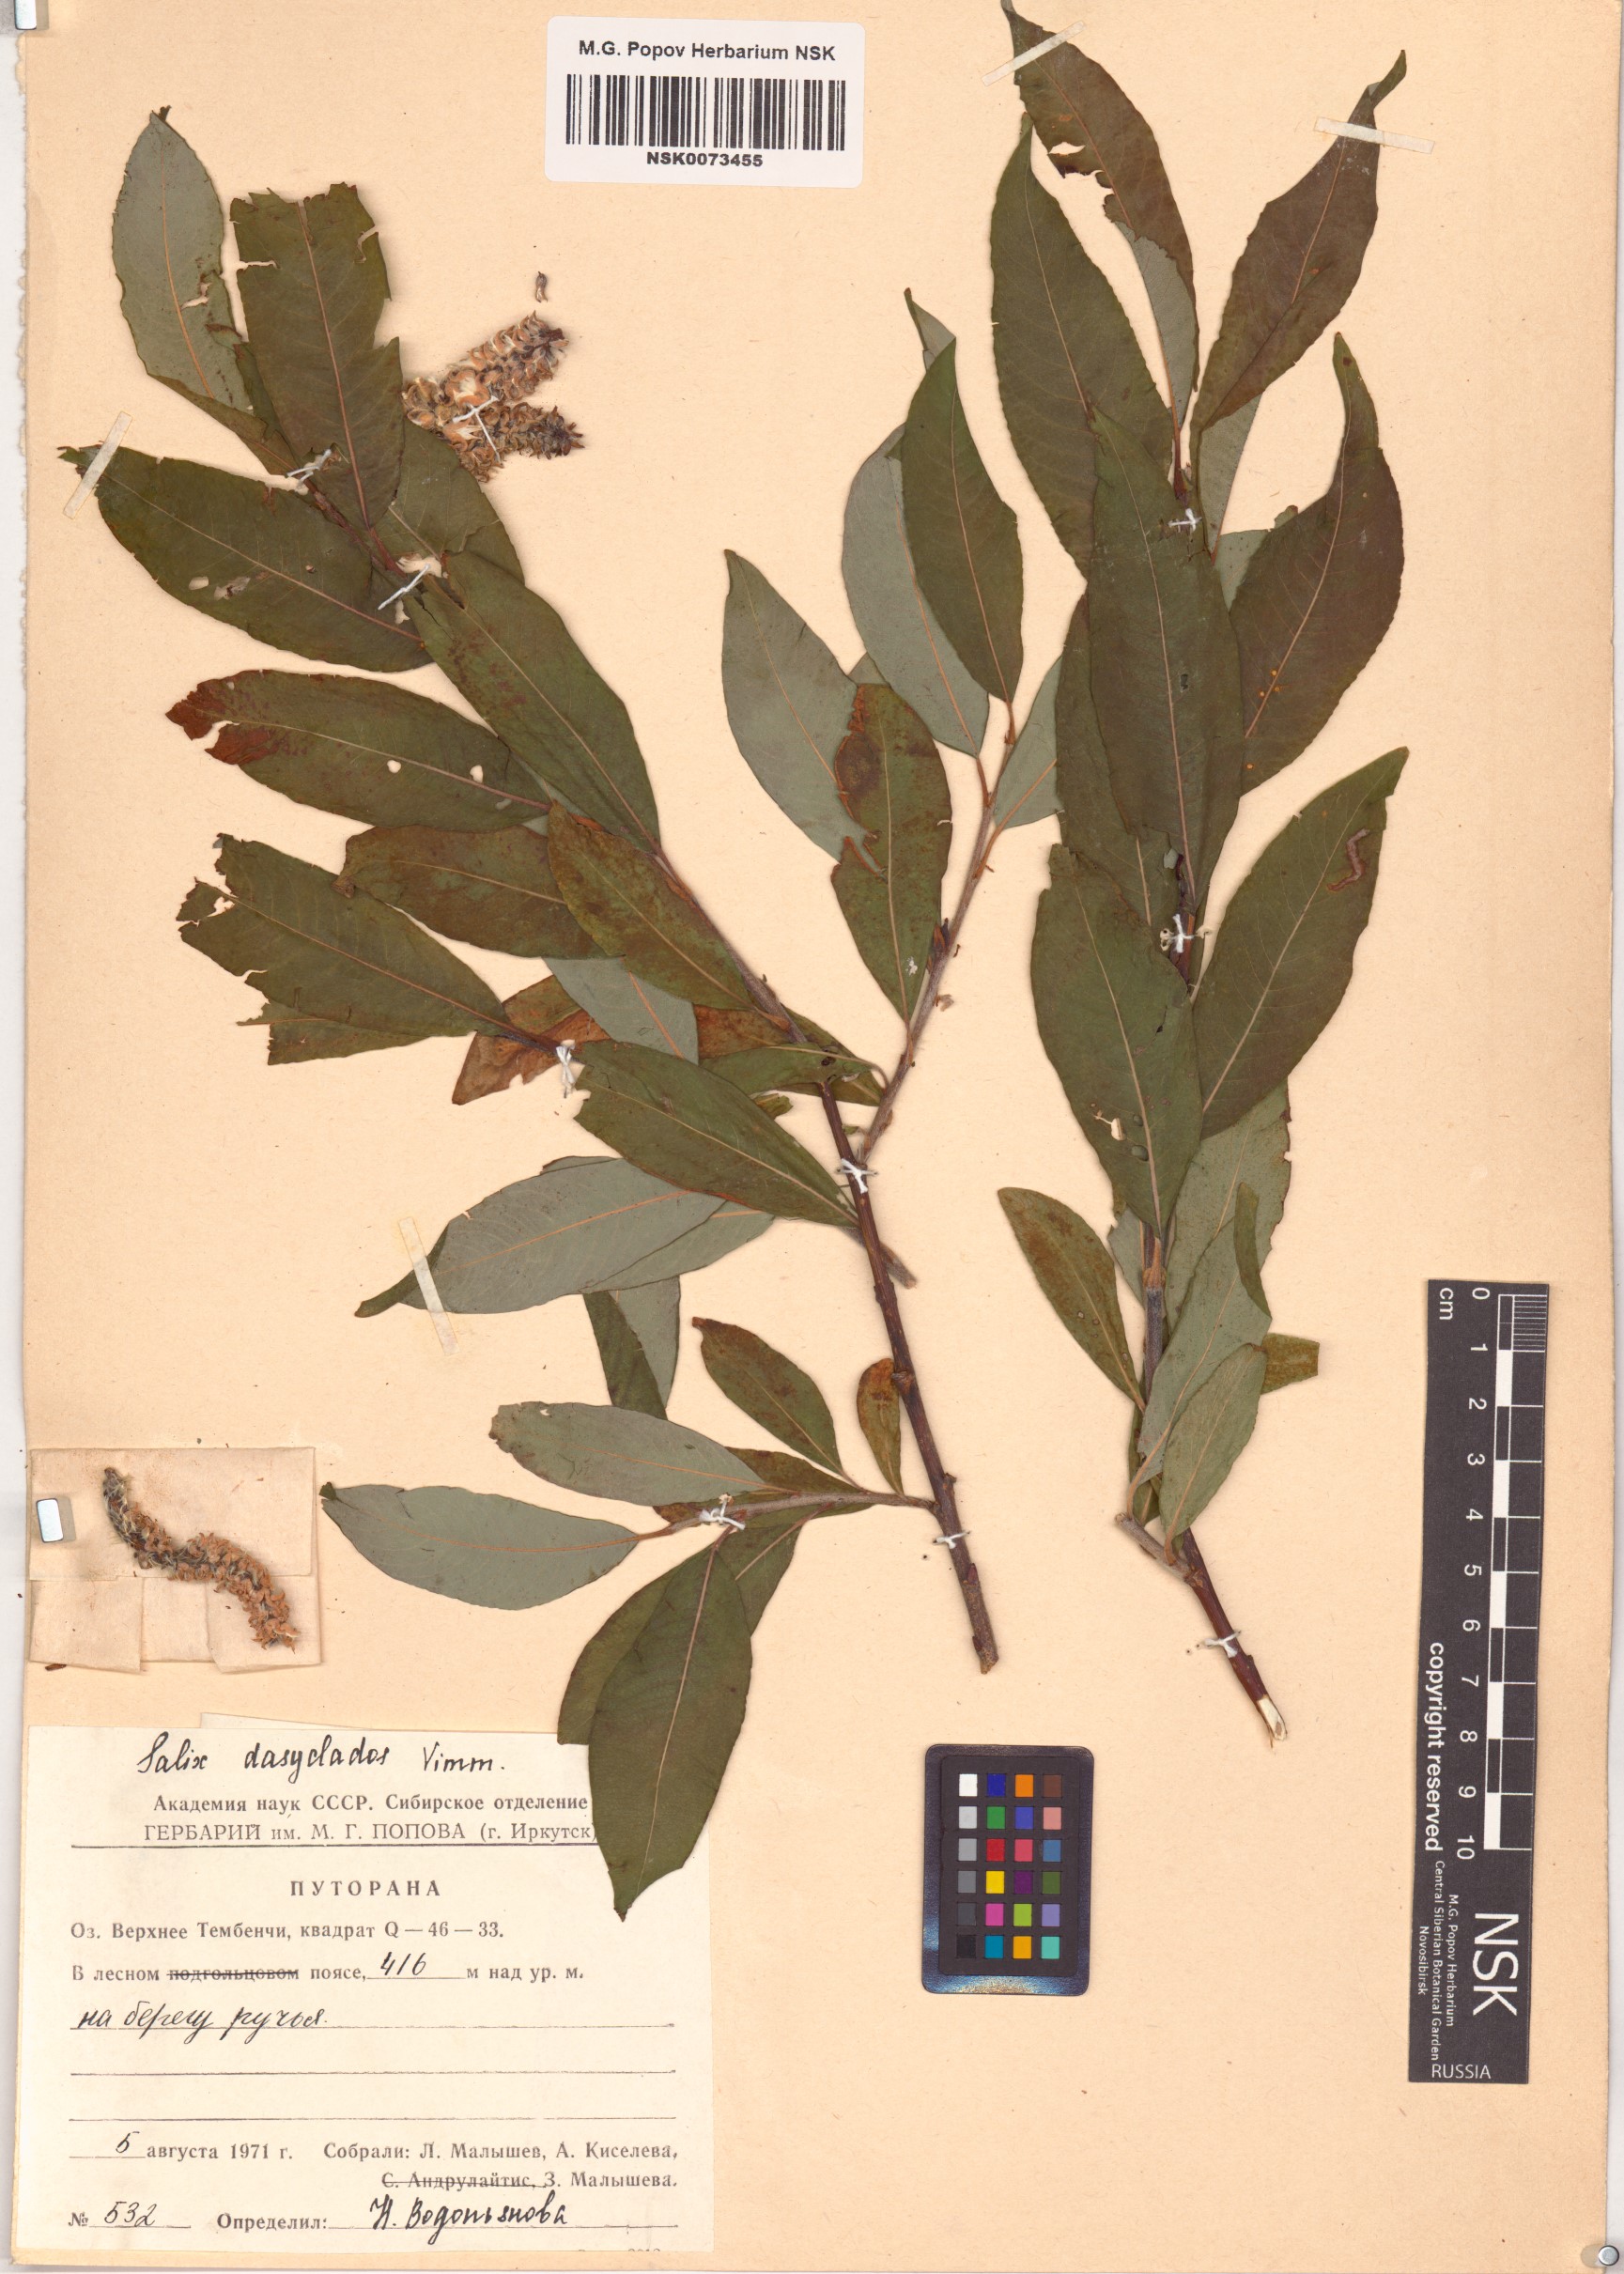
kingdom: Plantae
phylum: Tracheophyta
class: Magnoliopsida
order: Malpighiales
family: Salicaceae
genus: Salix
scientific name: Salix gmelinii
